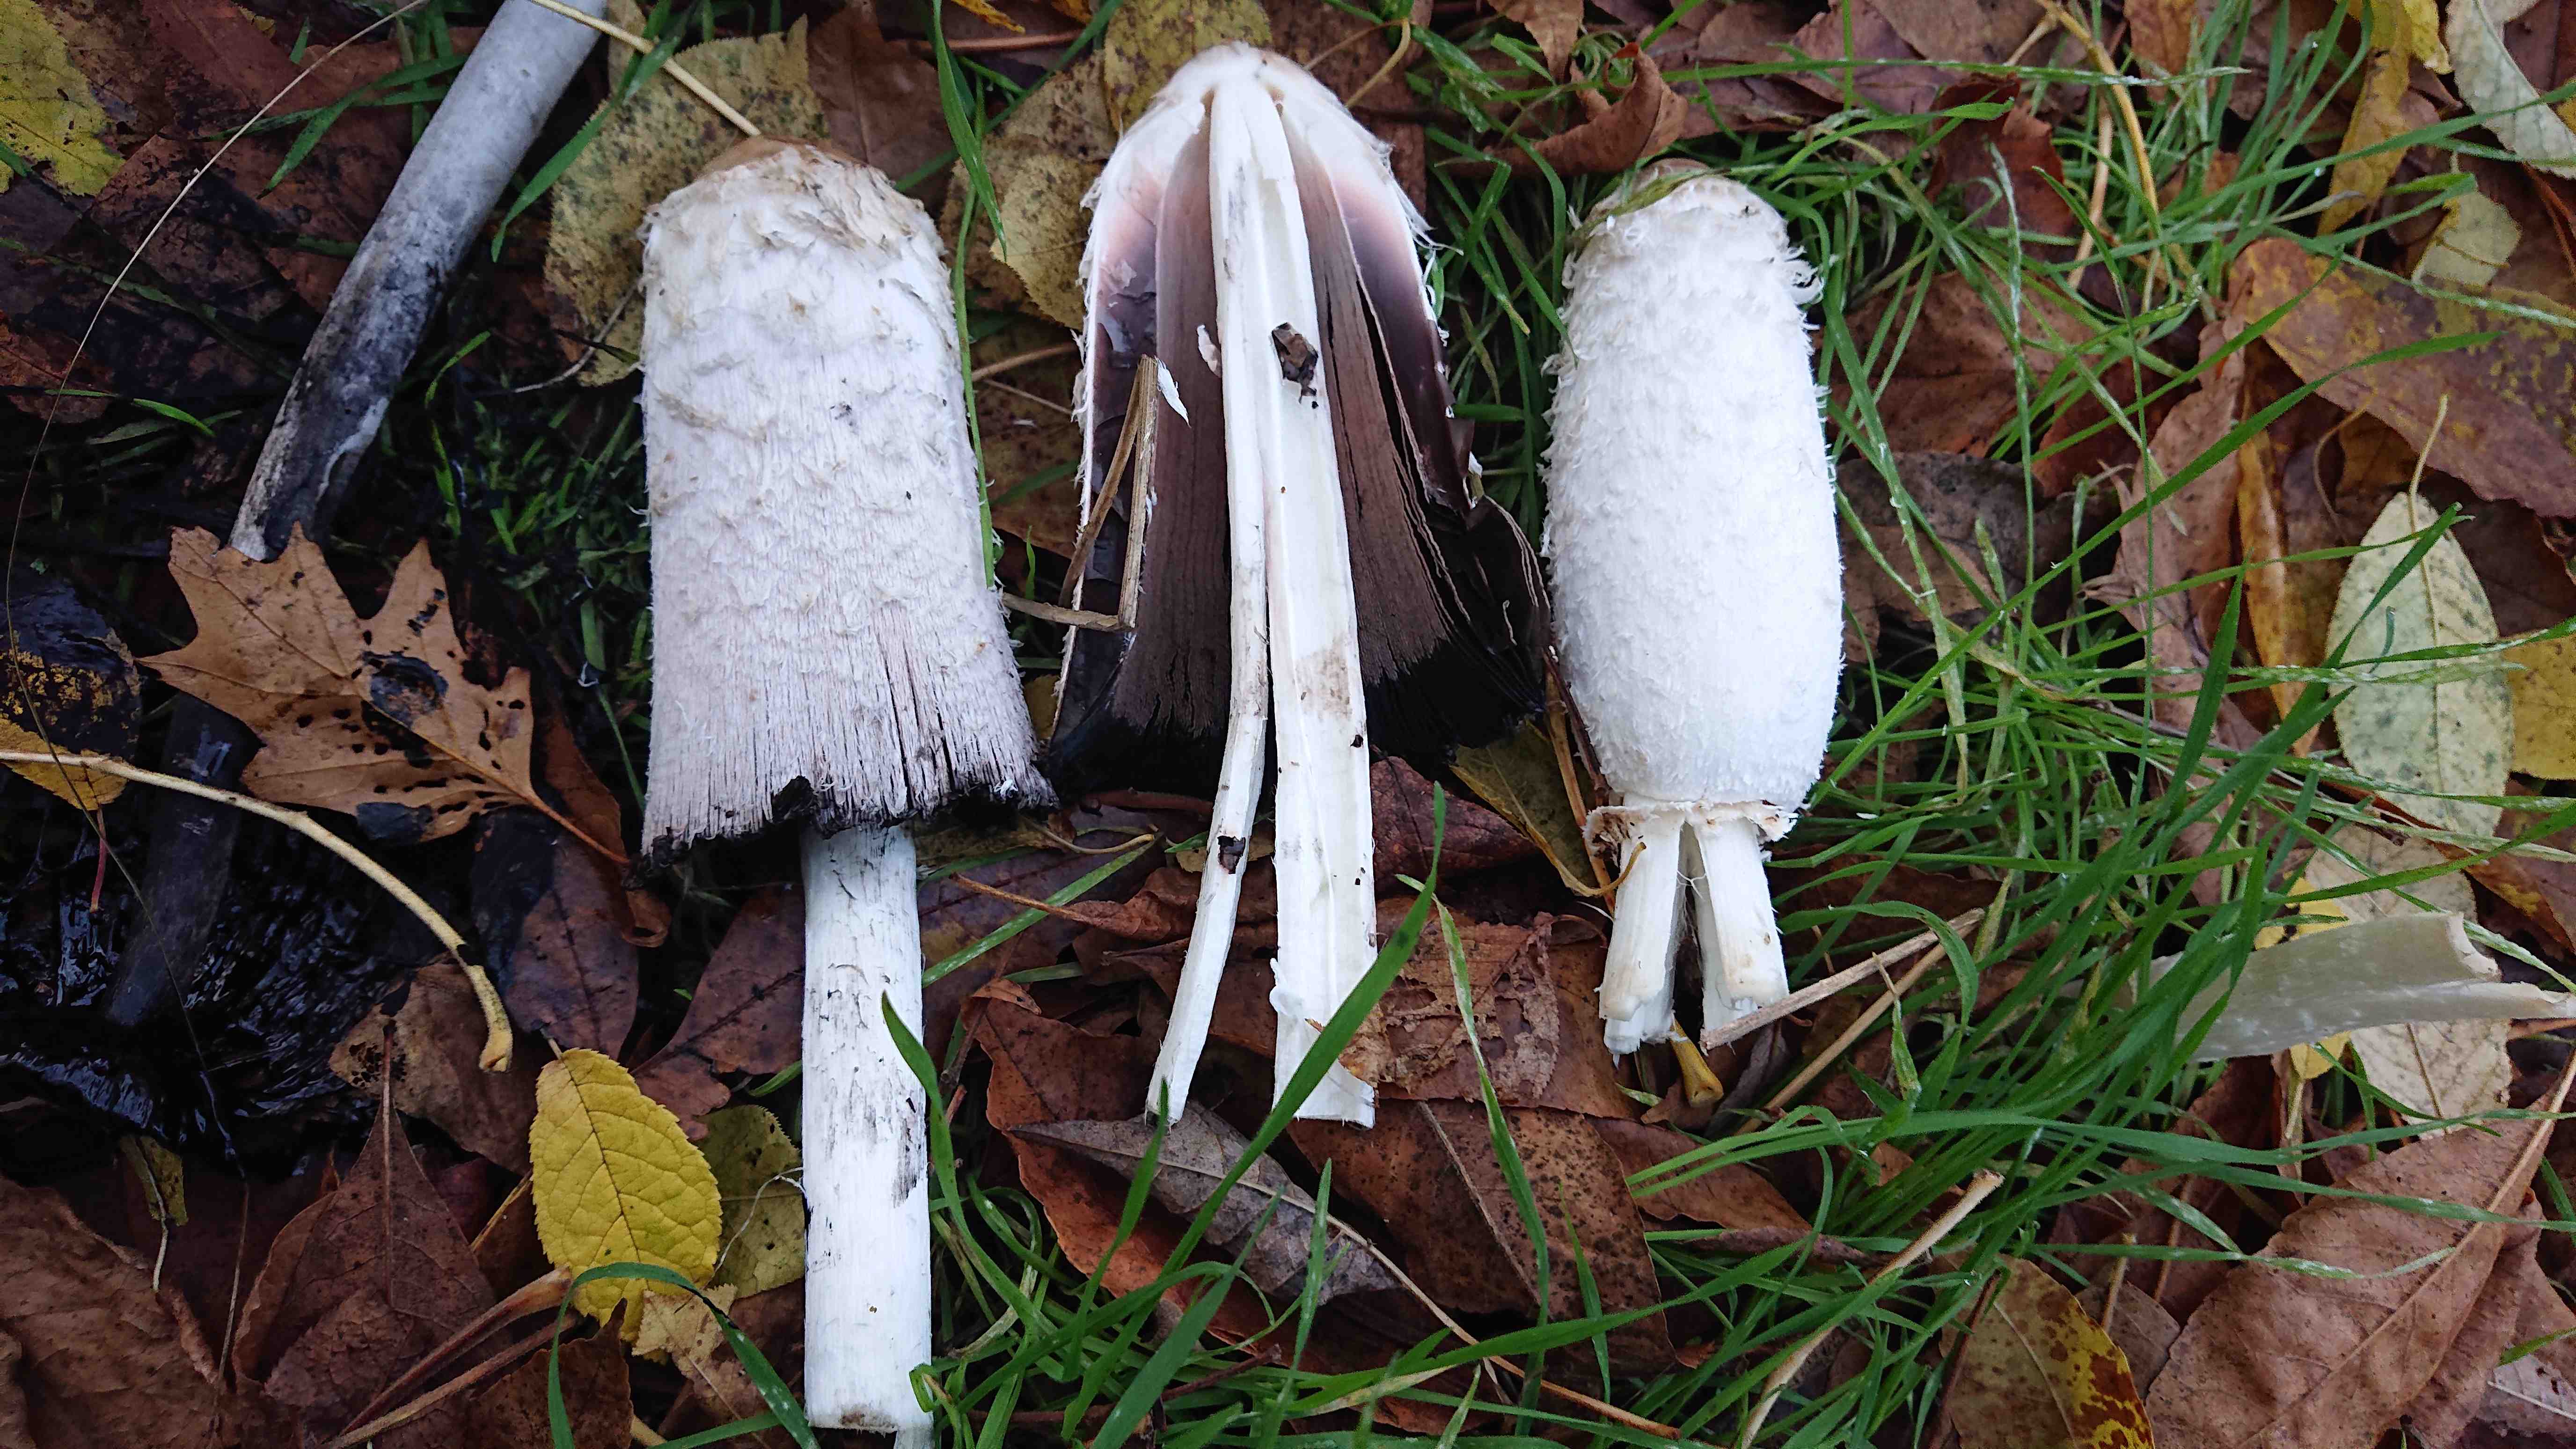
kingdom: Fungi
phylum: Basidiomycota
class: Agaricomycetes
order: Agaricales
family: Agaricaceae
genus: Coprinus
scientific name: Coprinus comatus
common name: stor parykhat
